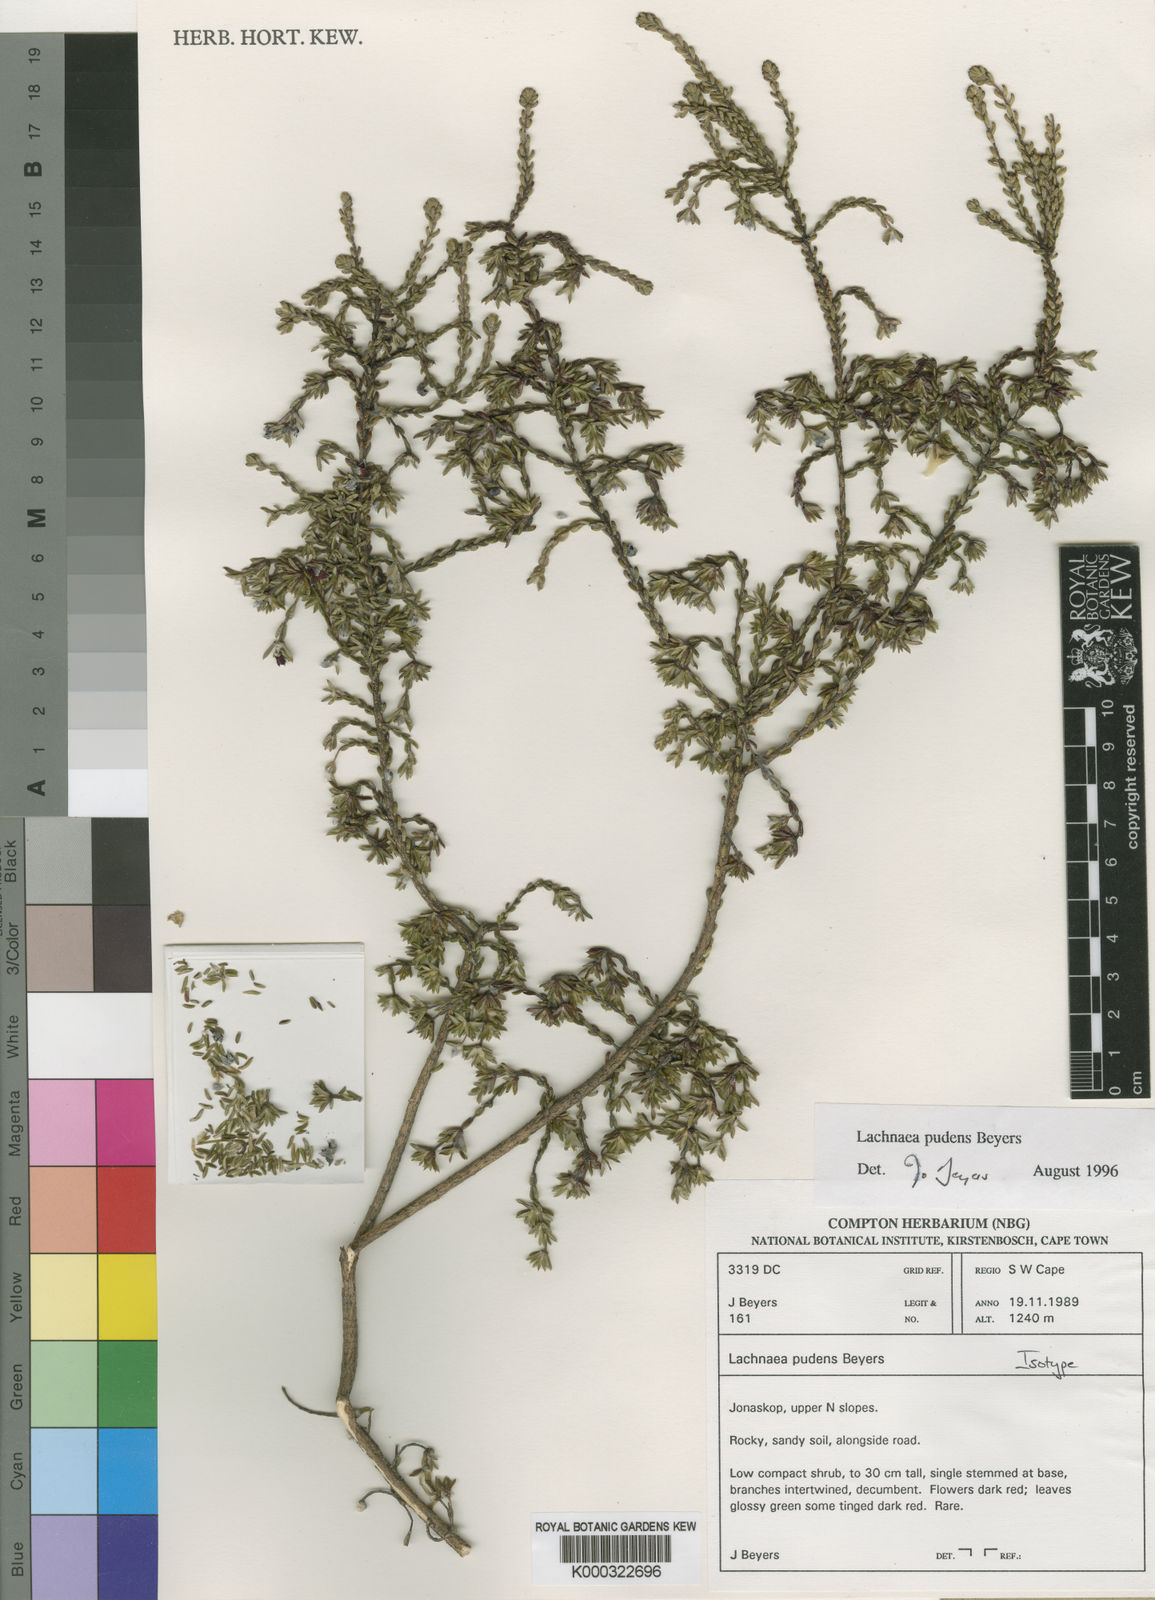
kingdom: Plantae
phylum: Tracheophyta
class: Magnoliopsida
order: Malvales
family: Thymelaeaceae
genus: Lachnaea
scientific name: Lachnaea pudens
